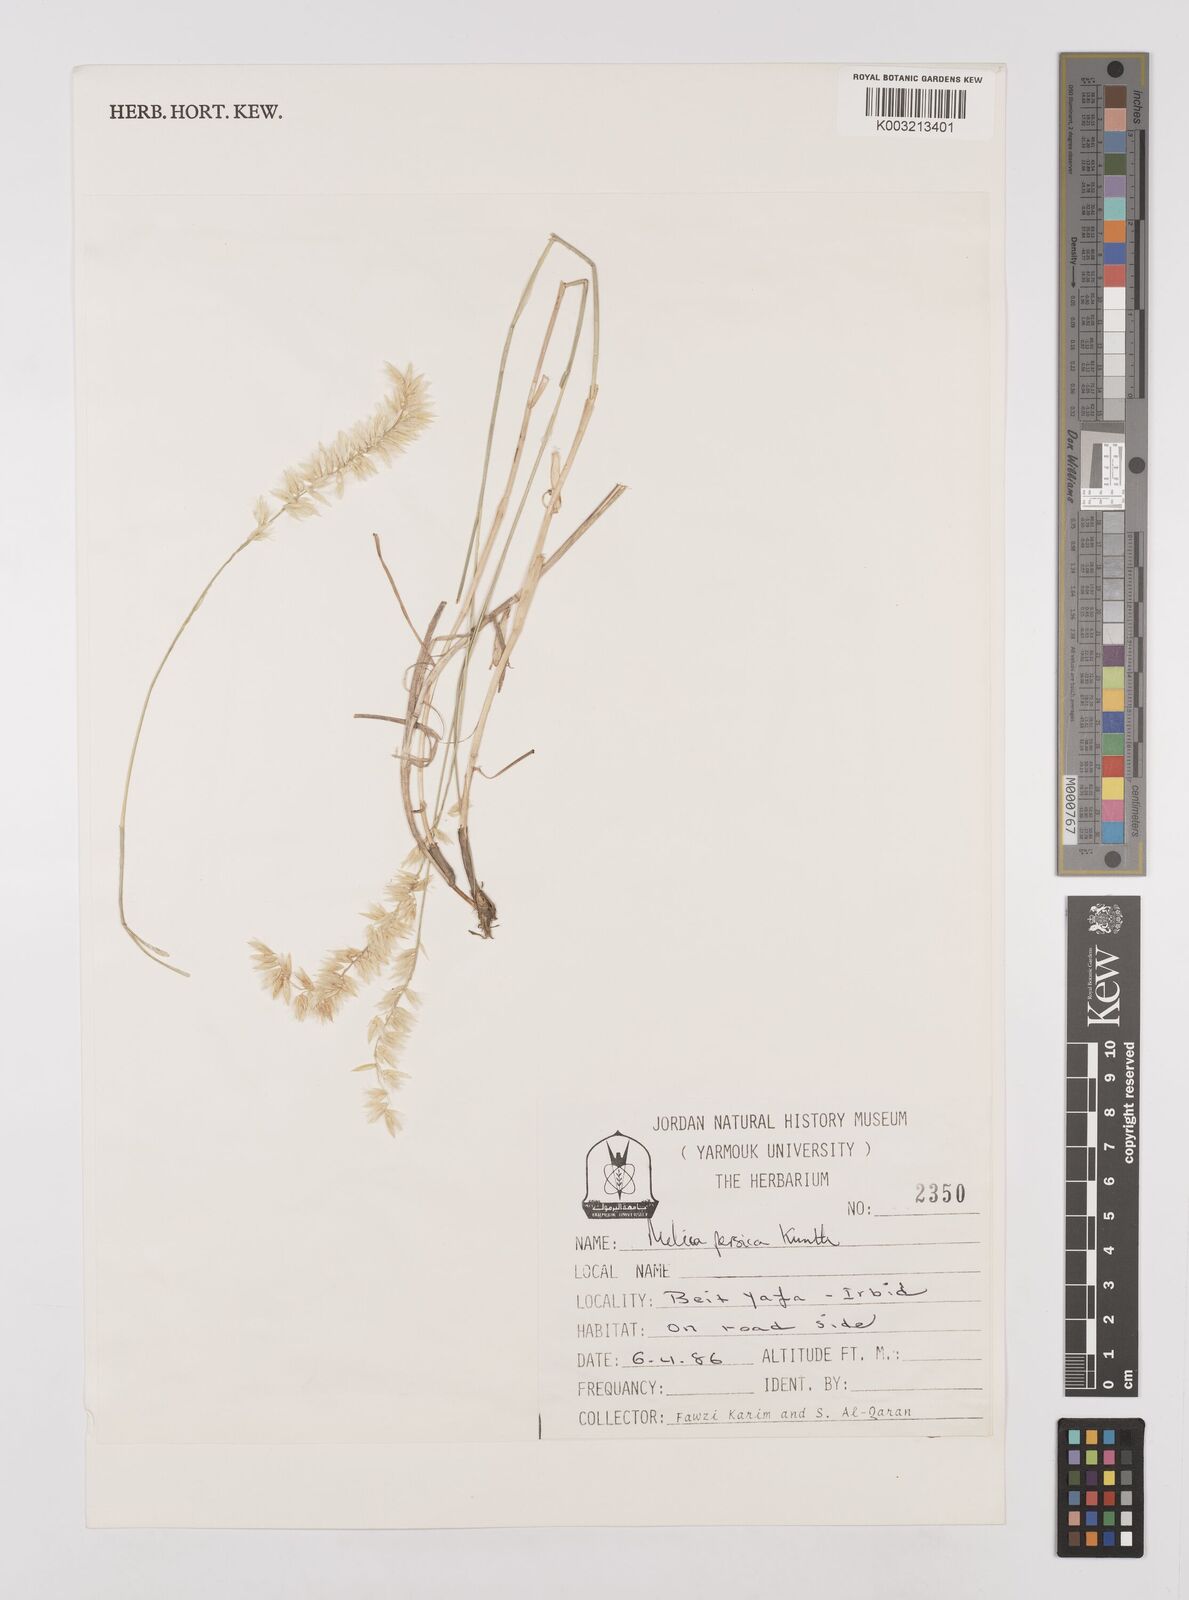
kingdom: Plantae
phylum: Tracheophyta
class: Liliopsida
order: Poales
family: Poaceae
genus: Melica
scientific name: Melica persica
